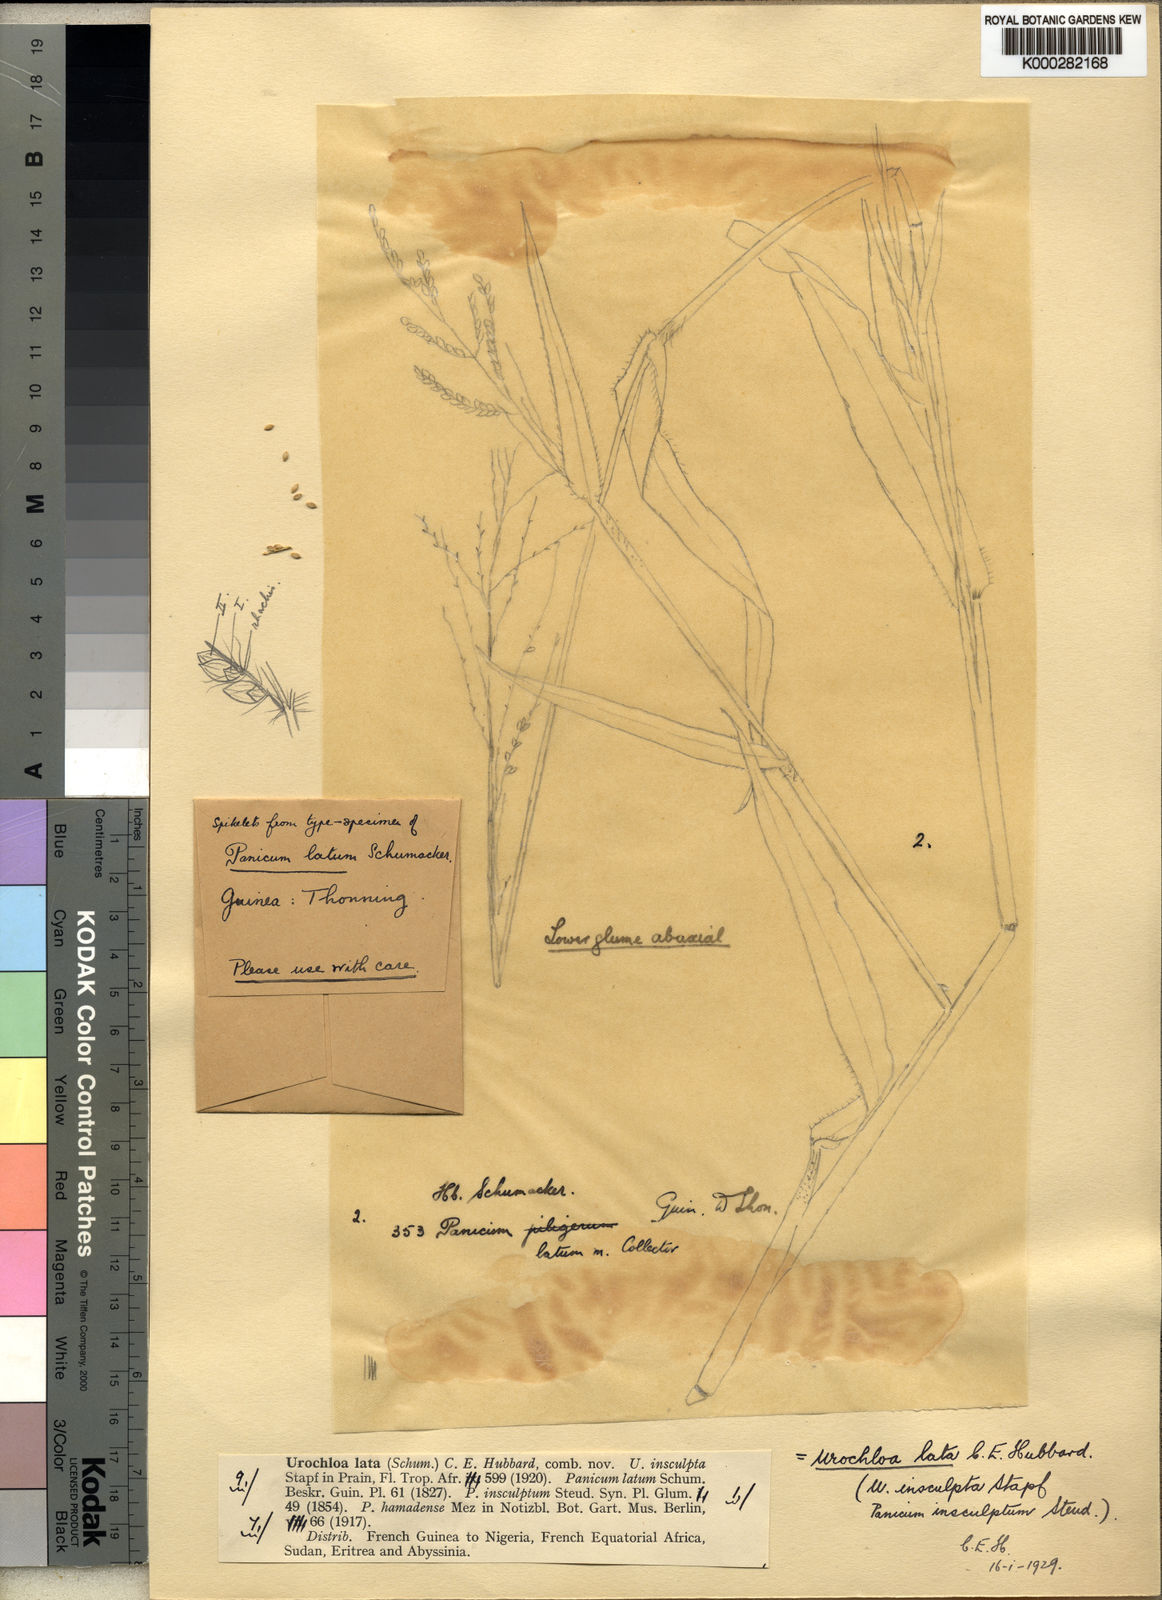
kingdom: Plantae
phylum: Tracheophyta
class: Liliopsida
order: Poales
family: Poaceae
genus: Urochloa
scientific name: Urochloa lata
